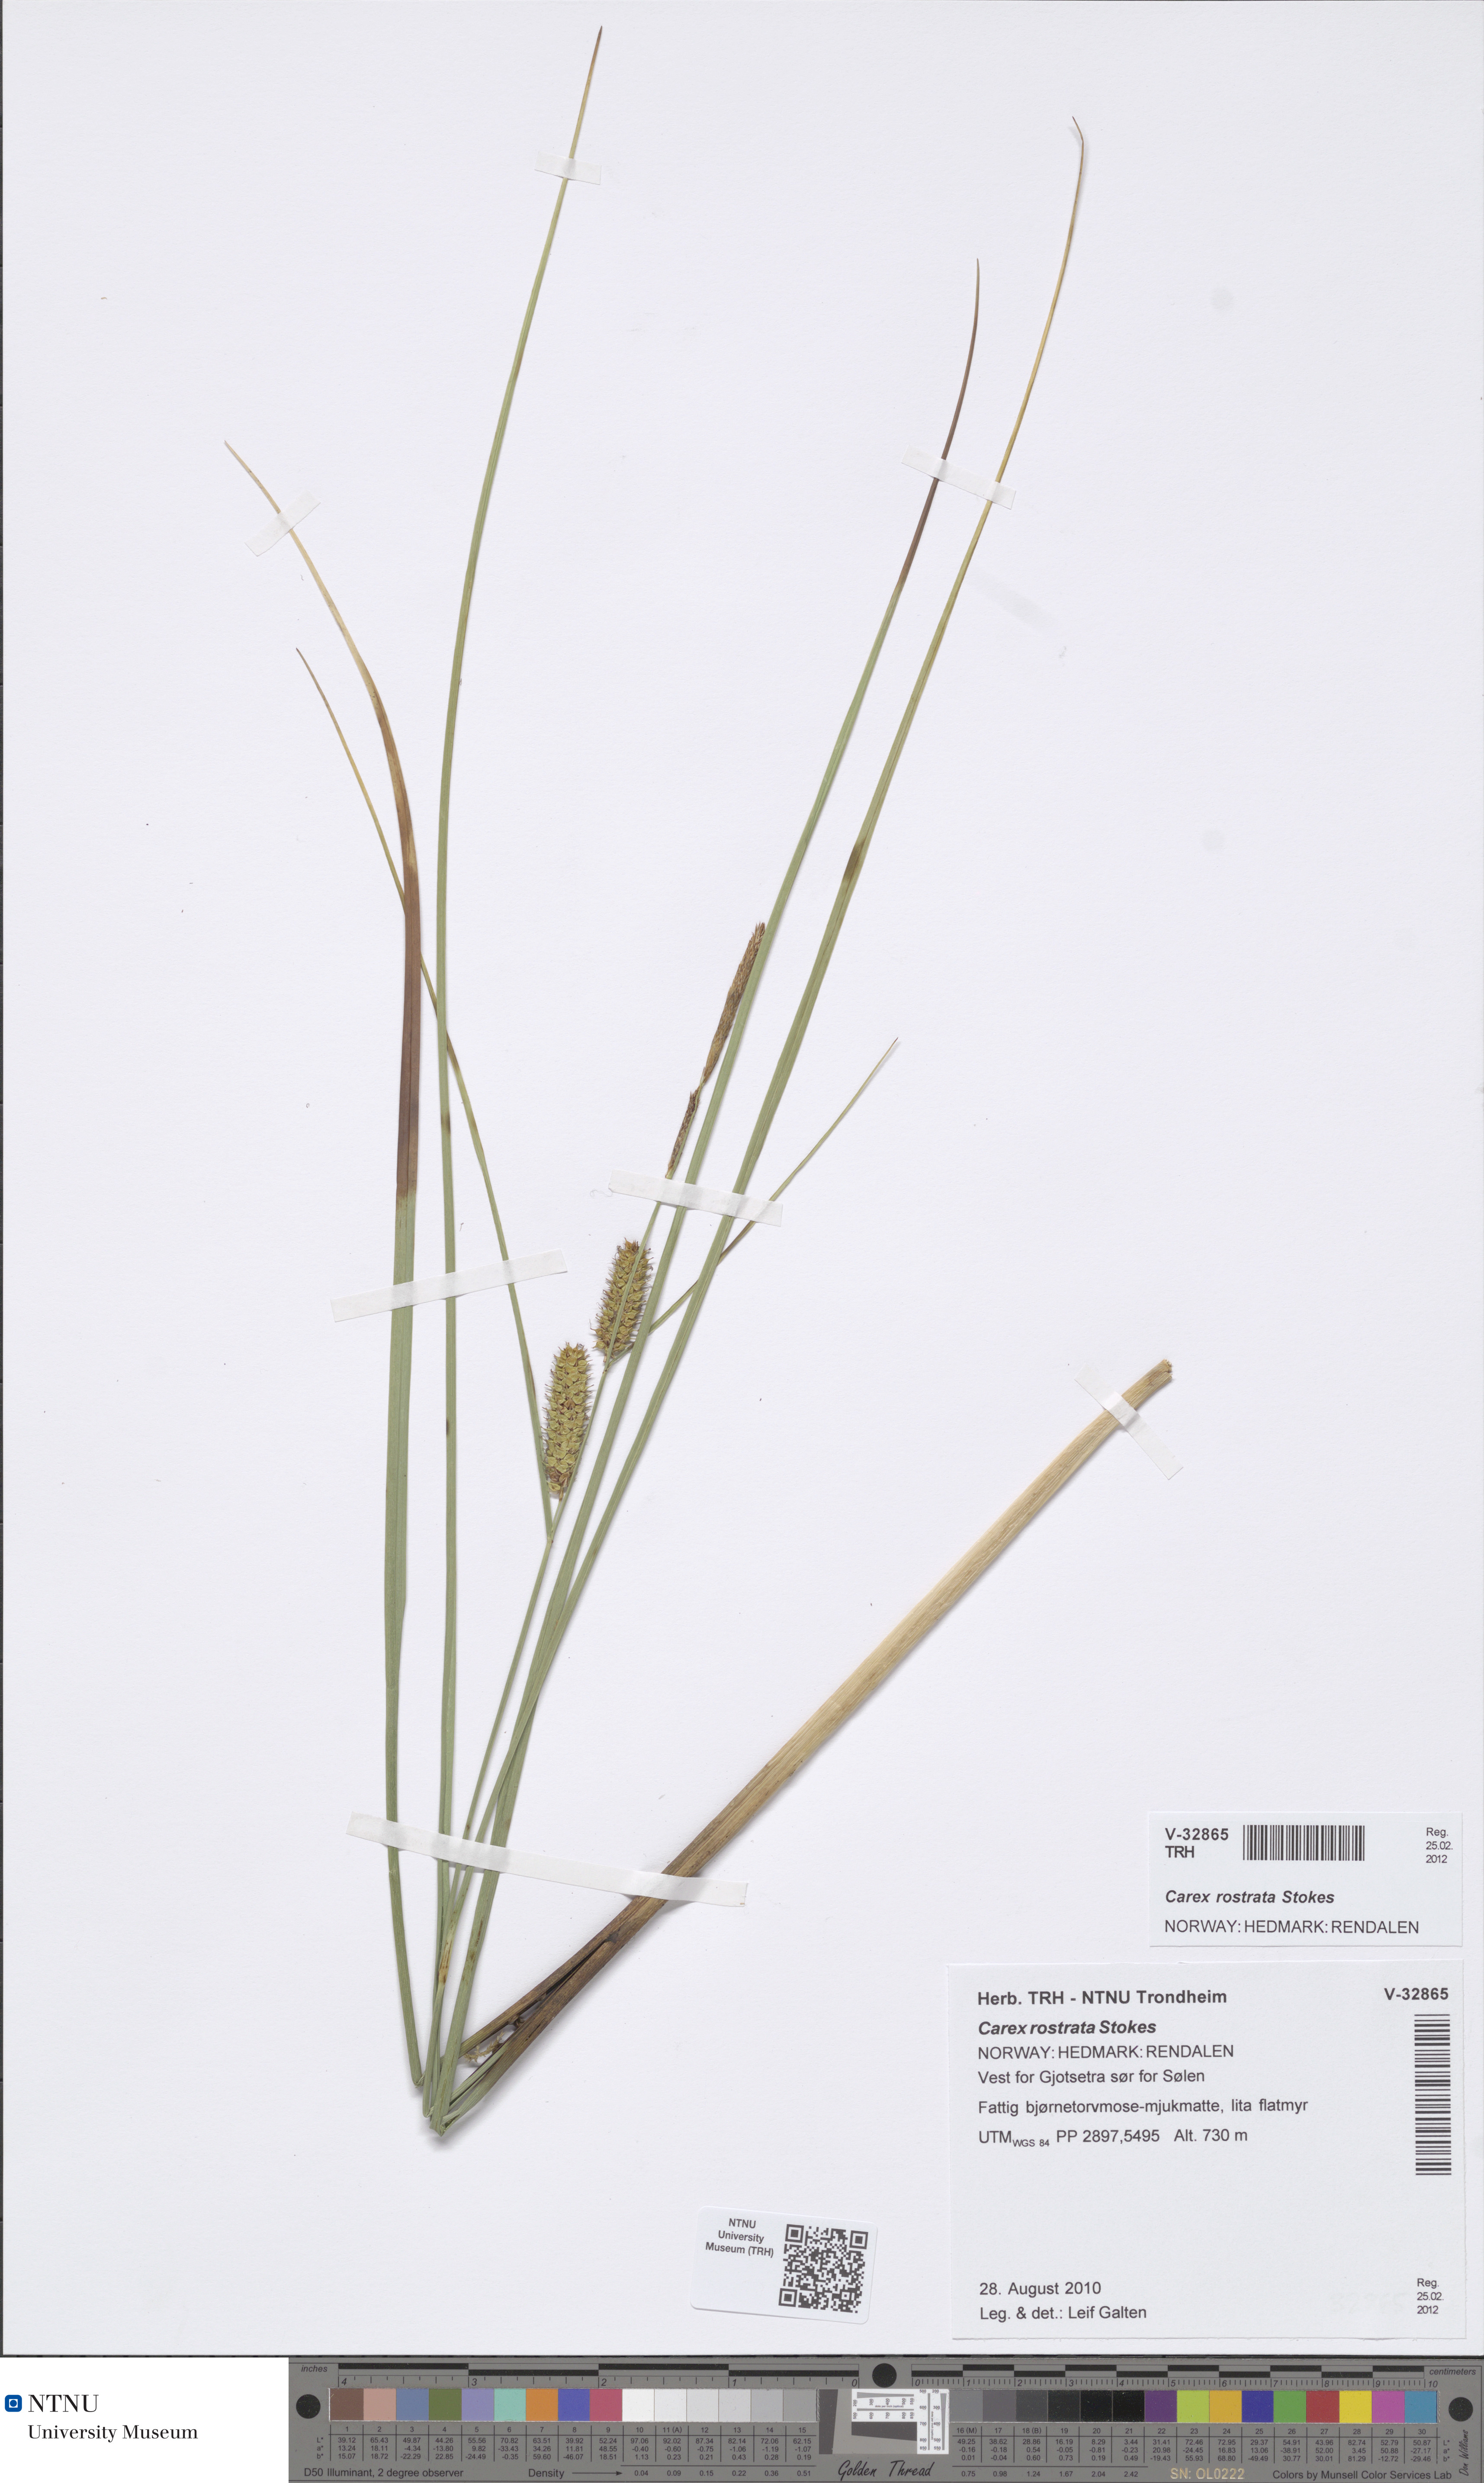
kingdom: Plantae
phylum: Tracheophyta
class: Liliopsida
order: Poales
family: Cyperaceae
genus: Carex
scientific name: Carex rostrata
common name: Bottle sedge
